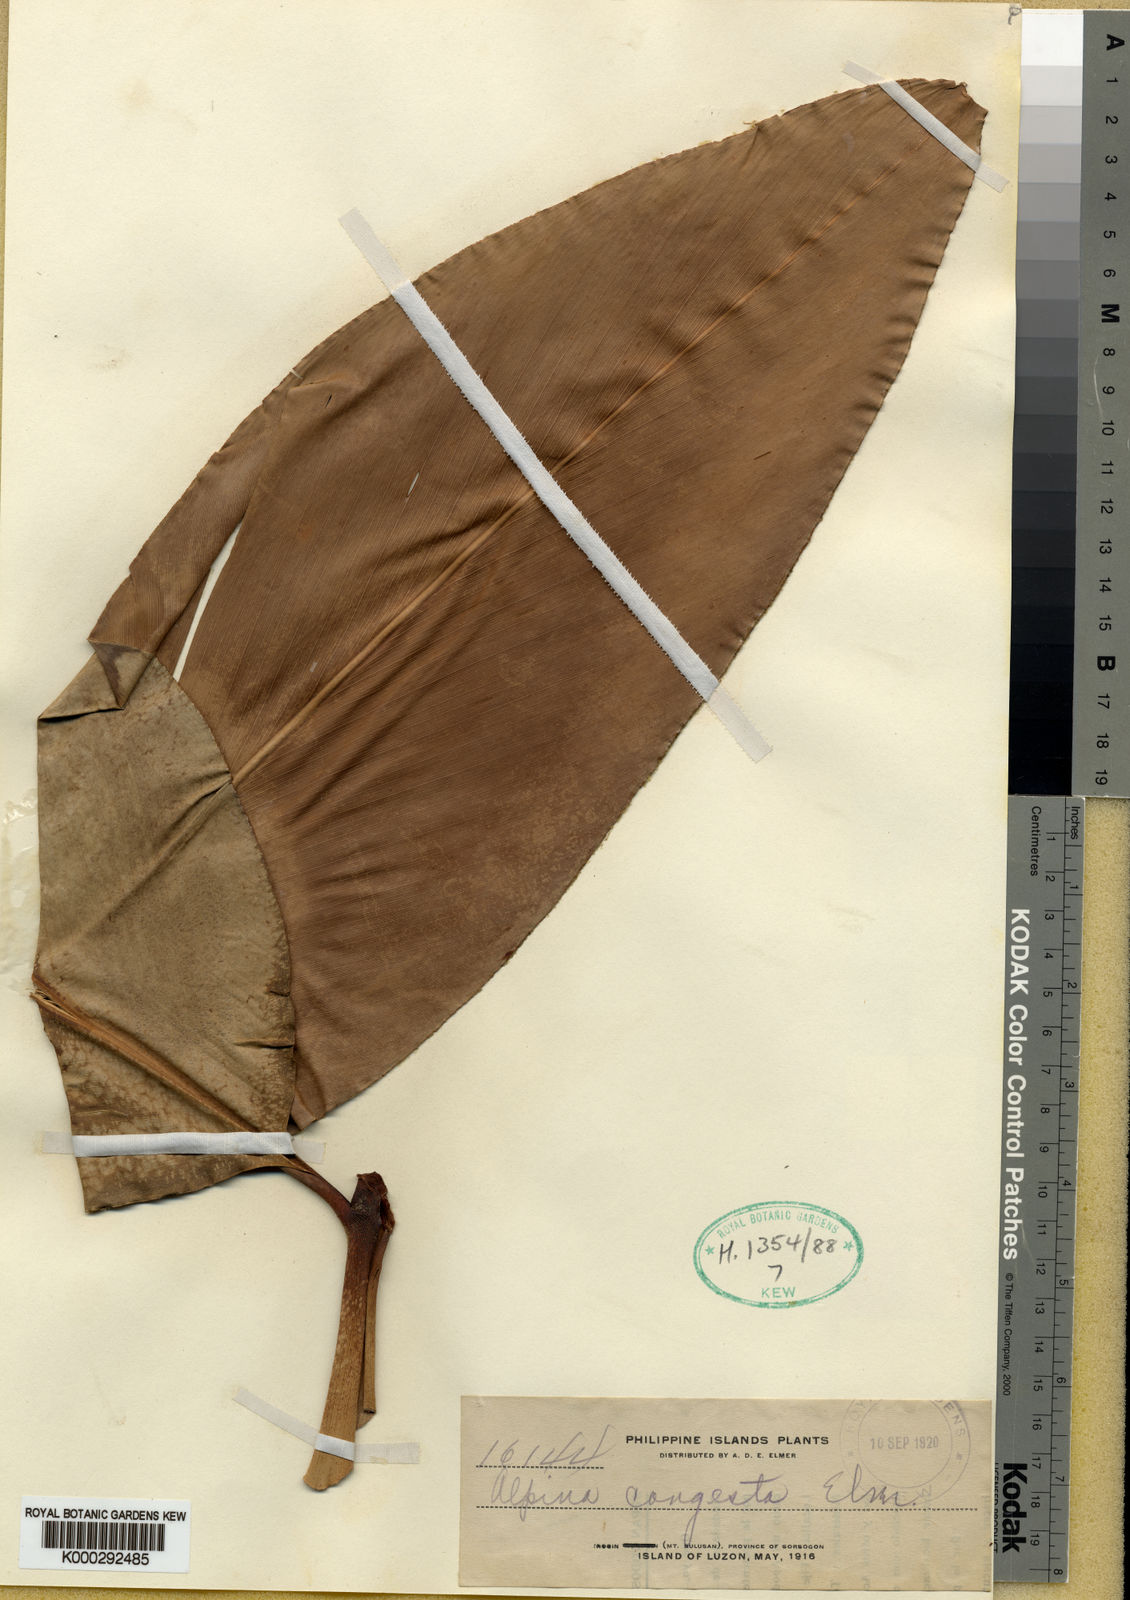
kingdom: Plantae
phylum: Tracheophyta
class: Liliopsida
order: Zingiberales
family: Zingiberaceae
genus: Alpinia
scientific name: Alpinia congesta
